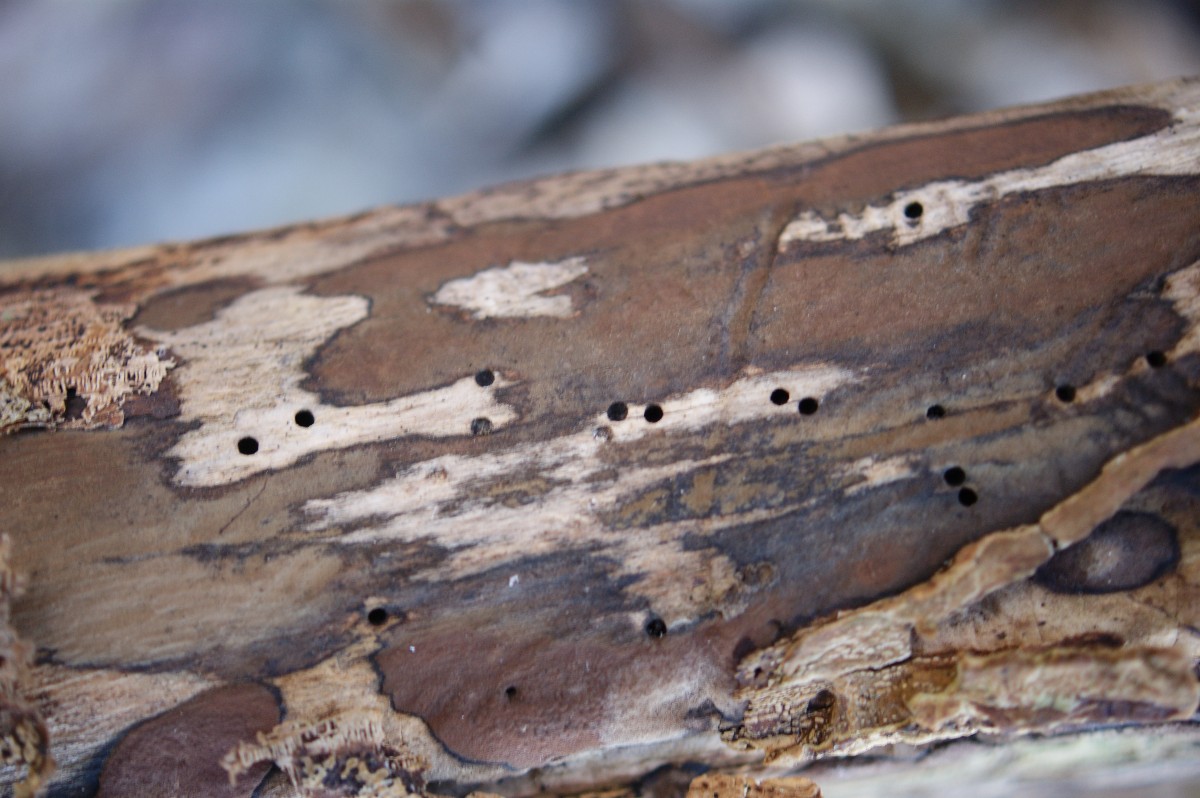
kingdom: Fungi
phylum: Ascomycota
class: Sordariomycetes
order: Xylariales
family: Hypoxylaceae
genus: Hypoxylon
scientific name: Hypoxylon petriniae
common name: nedsænket kulbær
